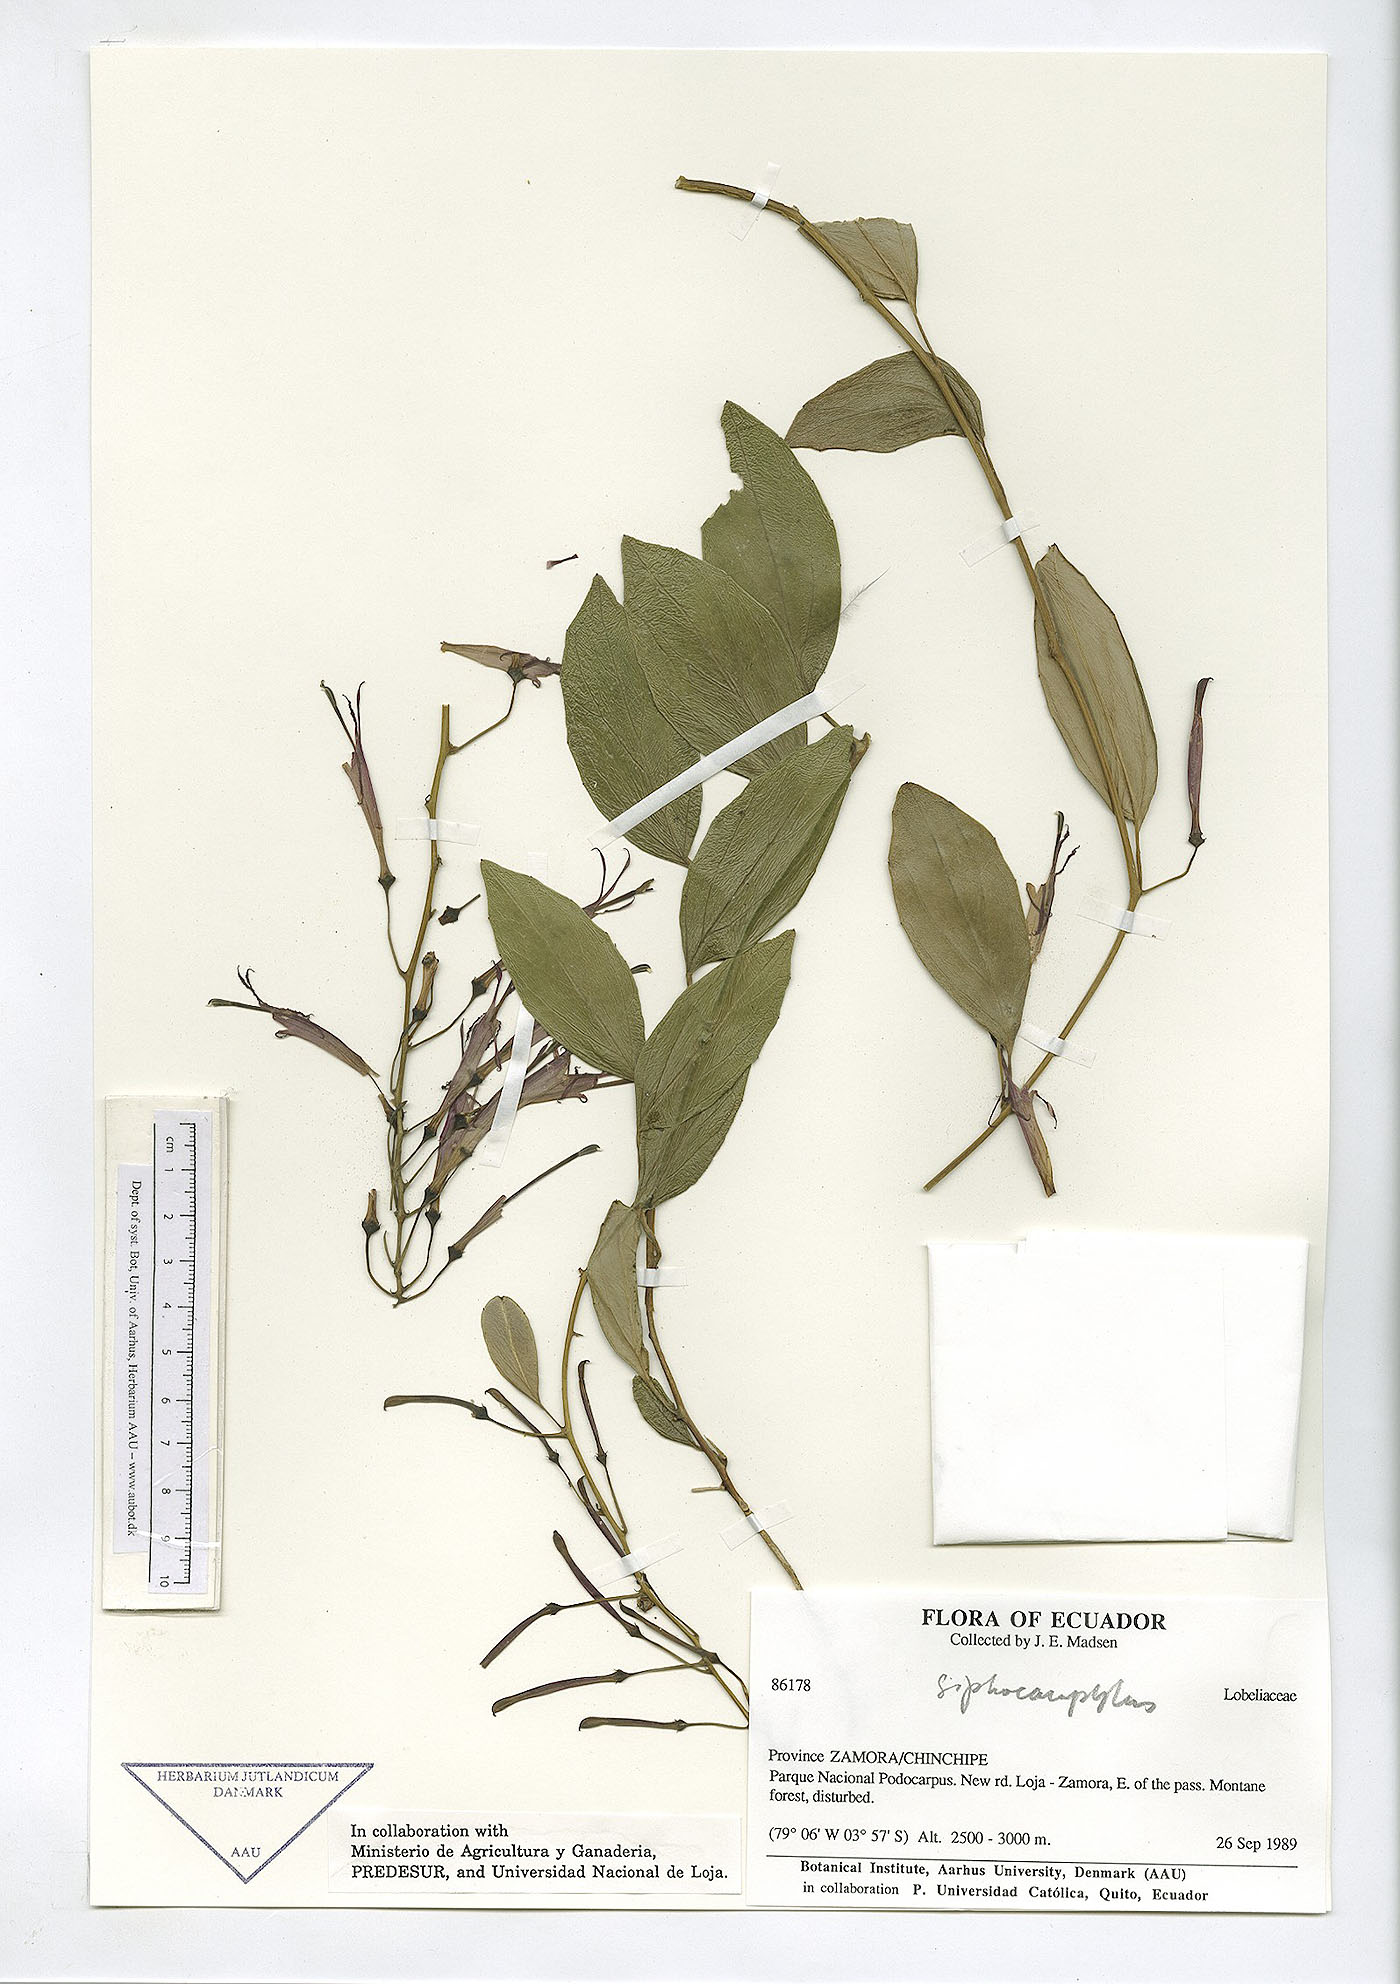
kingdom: Plantae
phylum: Tracheophyta
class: Magnoliopsida
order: Asterales
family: Campanulaceae
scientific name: Campanulaceae
